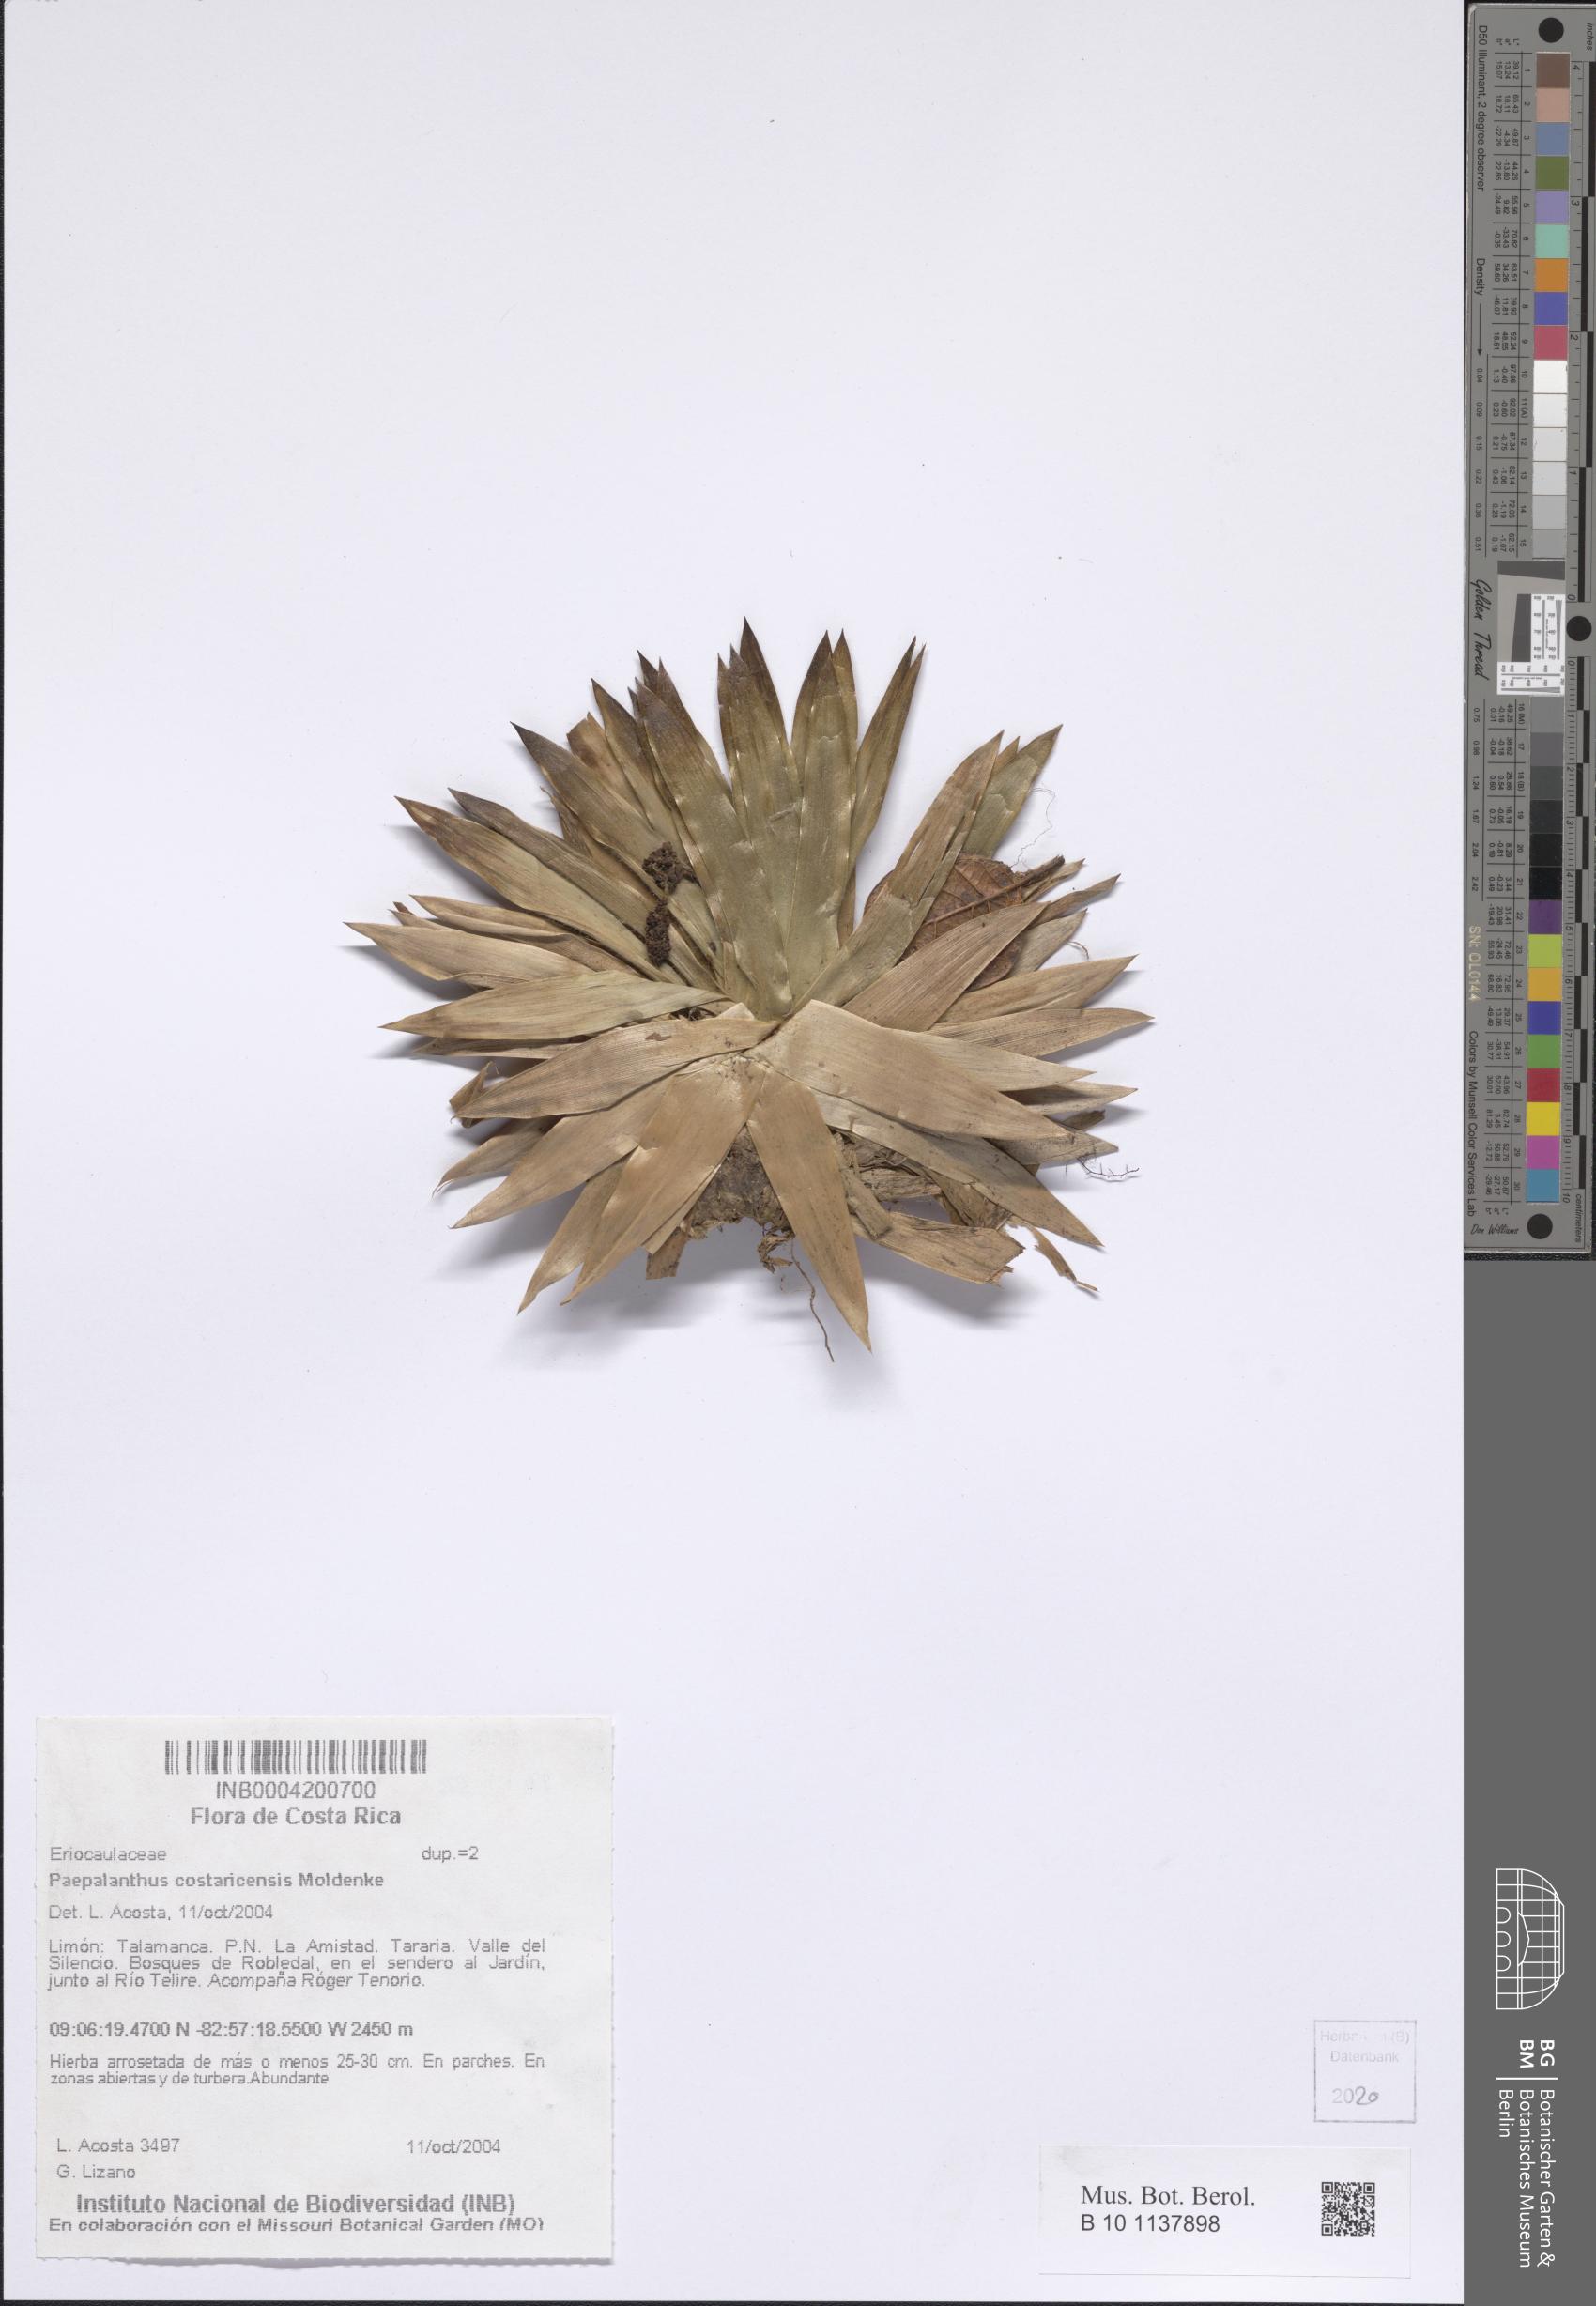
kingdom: Plantae
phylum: Tracheophyta
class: Liliopsida
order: Poales
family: Eriocaulaceae
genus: Paepalanthus
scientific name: Paepalanthus costaricensis
